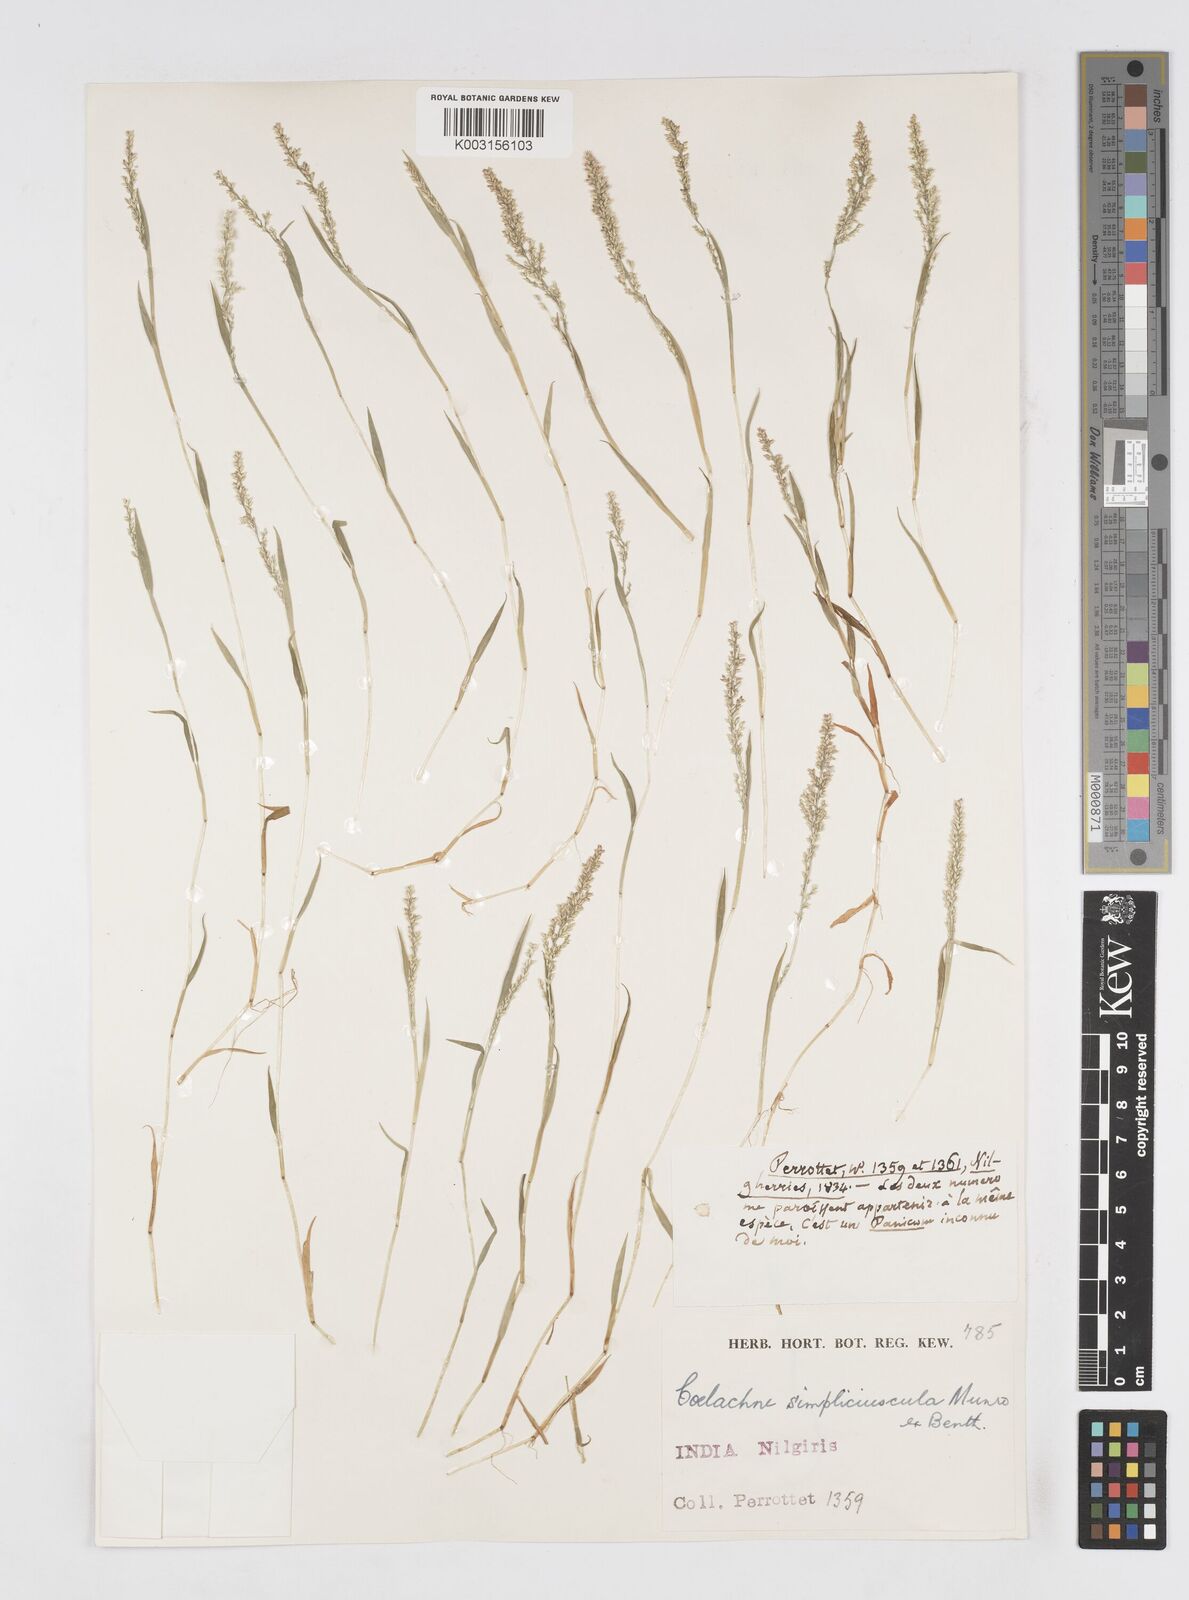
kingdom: Plantae
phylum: Tracheophyta
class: Liliopsida
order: Poales
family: Poaceae
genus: Coelachne
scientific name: Coelachne simpliciuscula
